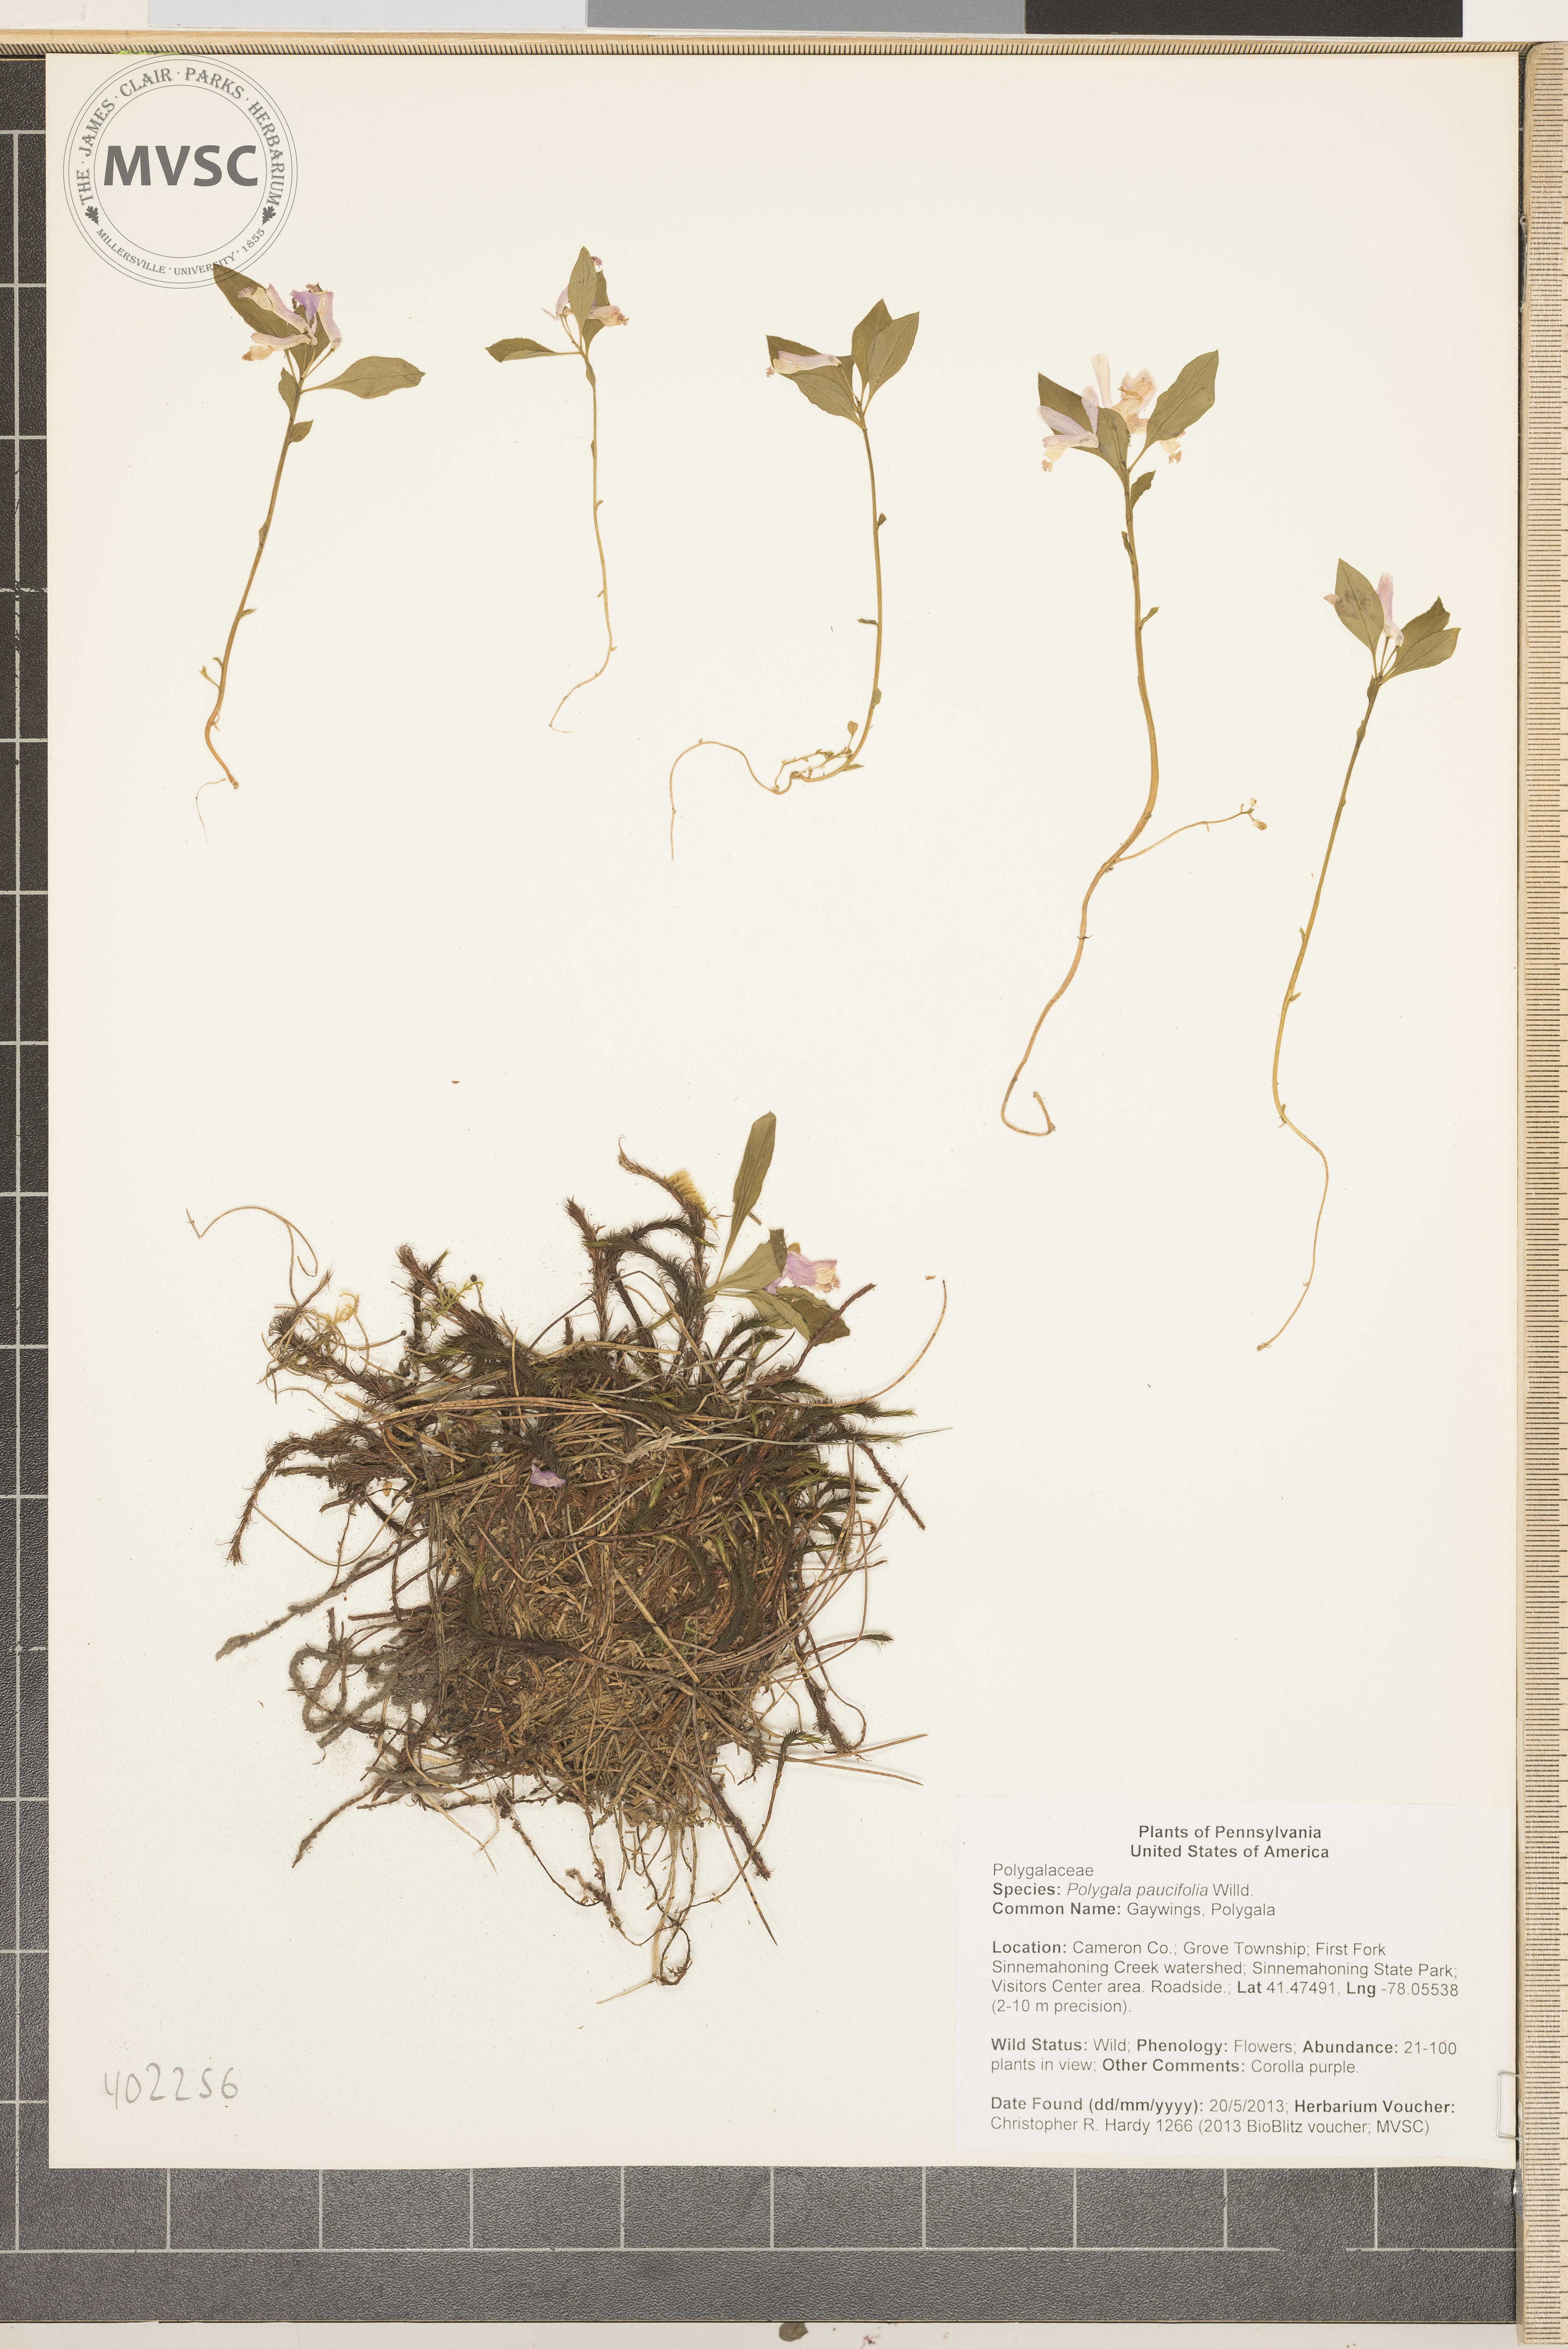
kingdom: Plantae
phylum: Tracheophyta
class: Magnoliopsida
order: Fabales
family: Polygalaceae
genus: Polygaloides
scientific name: Polygaloides paucifolia
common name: Polygala
